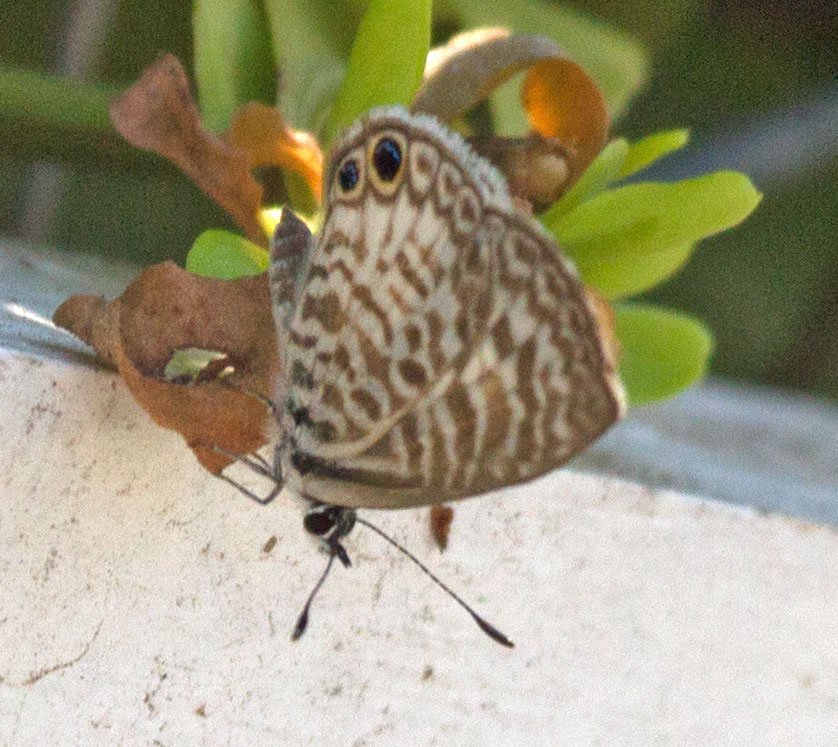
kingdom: Animalia
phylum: Arthropoda
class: Insecta
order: Lepidoptera
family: Lycaenidae
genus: Leptotes
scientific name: Leptotes cassius
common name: Cassius Blue
